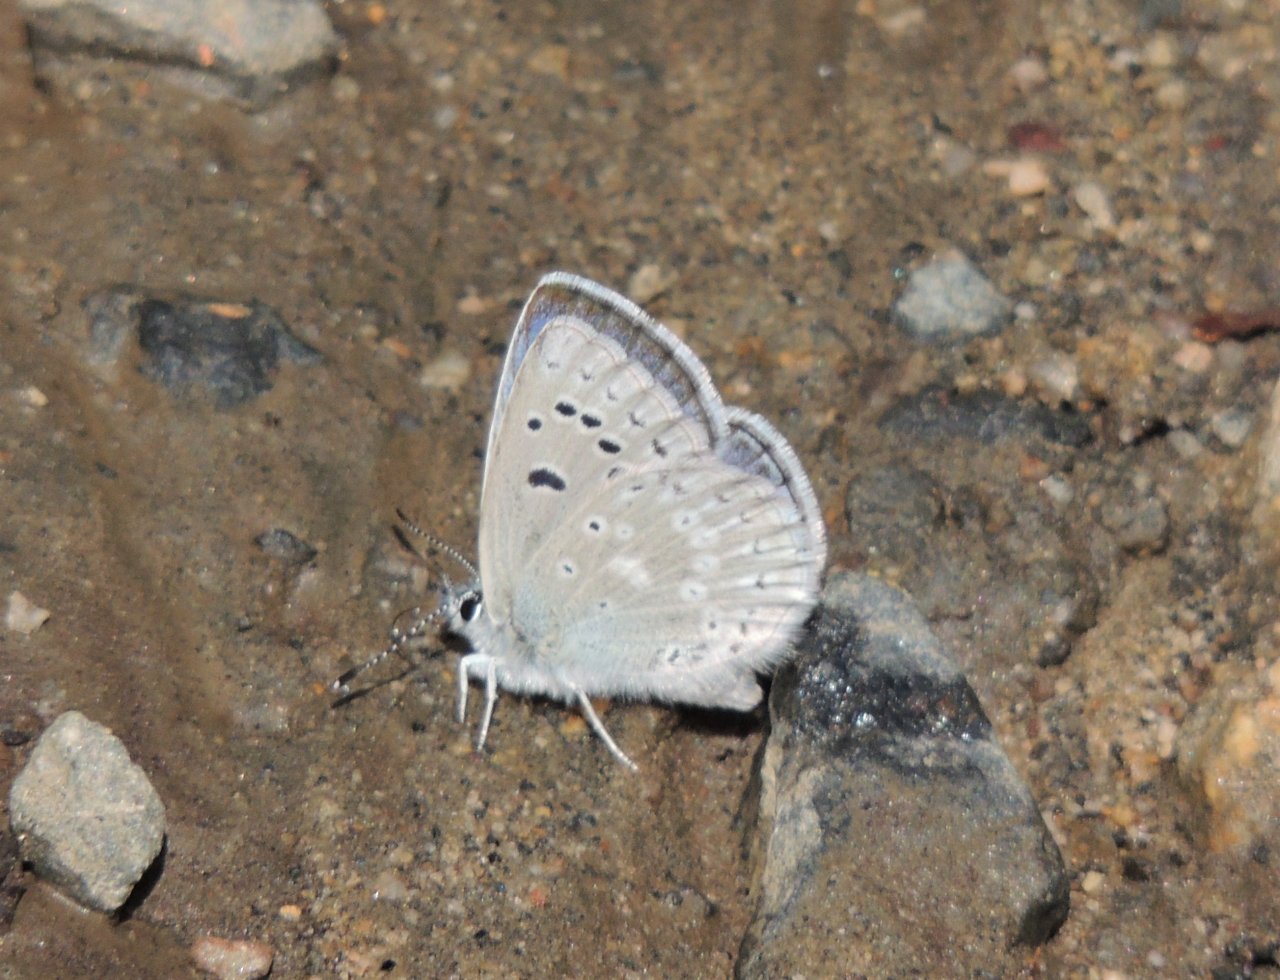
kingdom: Animalia
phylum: Arthropoda
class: Insecta
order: Lepidoptera
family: Lycaenidae
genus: Icaricia
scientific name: Icaricia icarioides
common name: Boisduval's Blue
